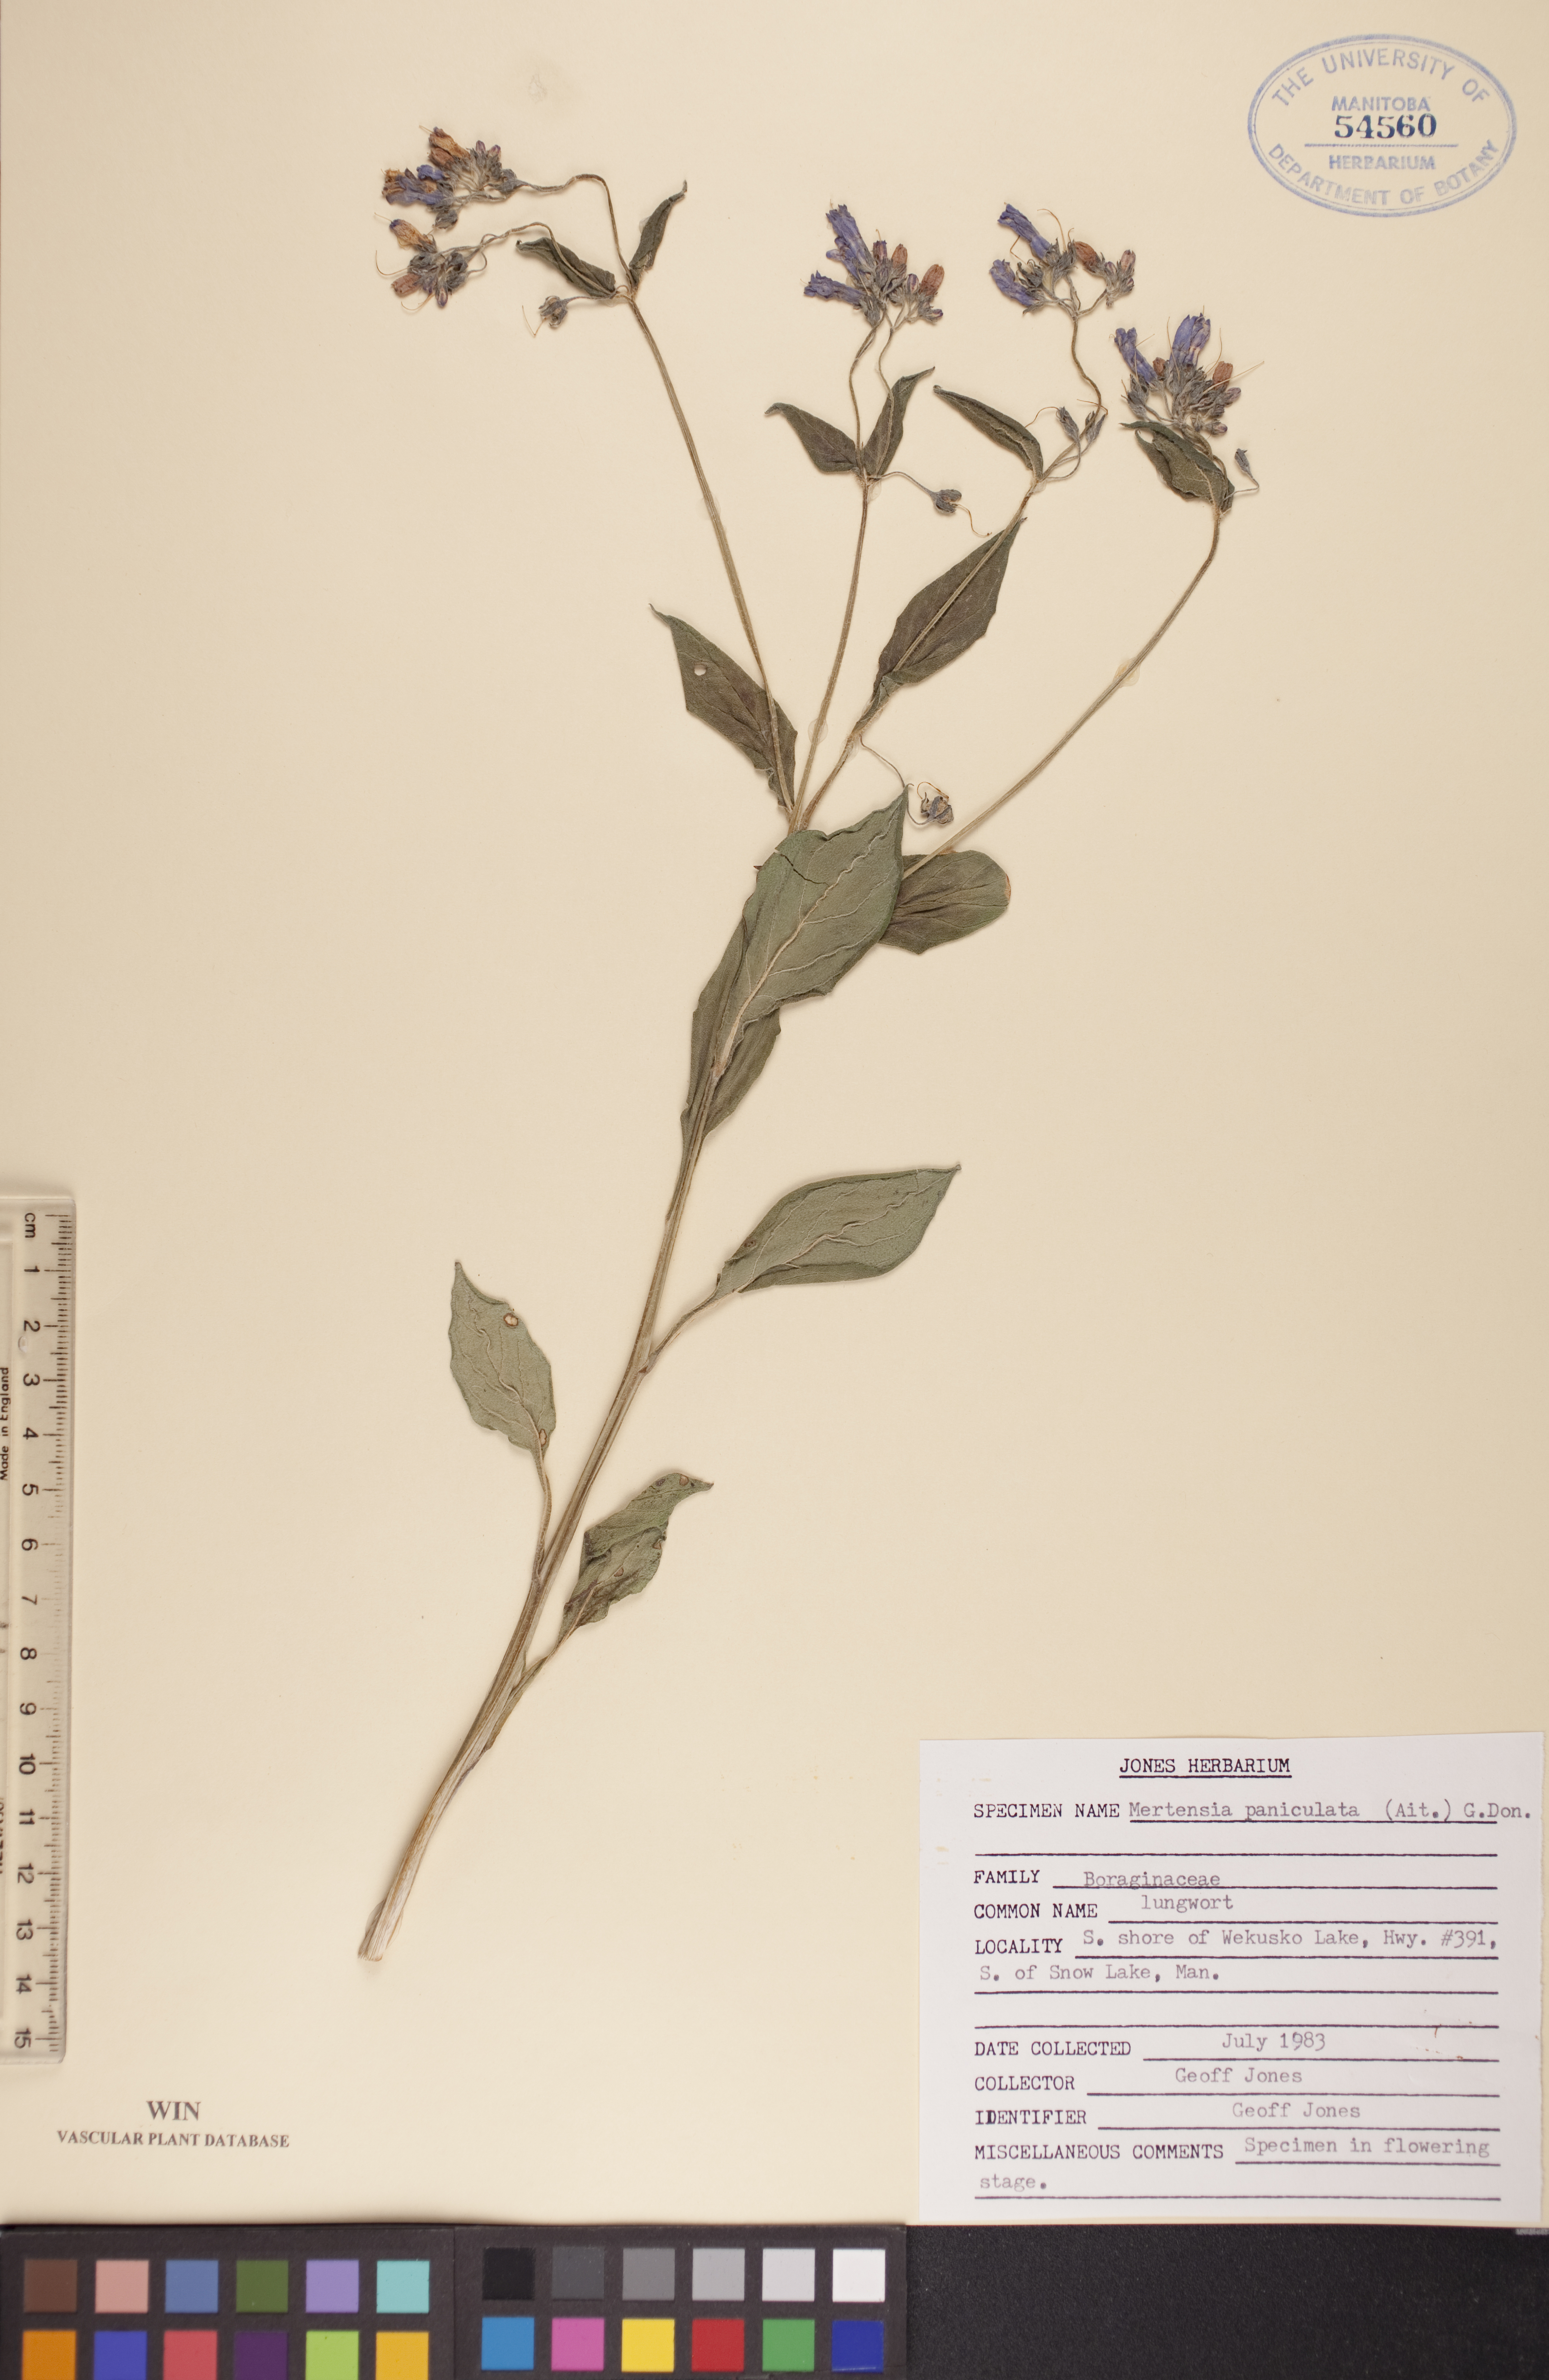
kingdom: Plantae
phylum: Tracheophyta
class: Magnoliopsida
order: Boraginales
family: Boraginaceae
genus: Mertensia
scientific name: Mertensia paniculata
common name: Panicled bluebells
